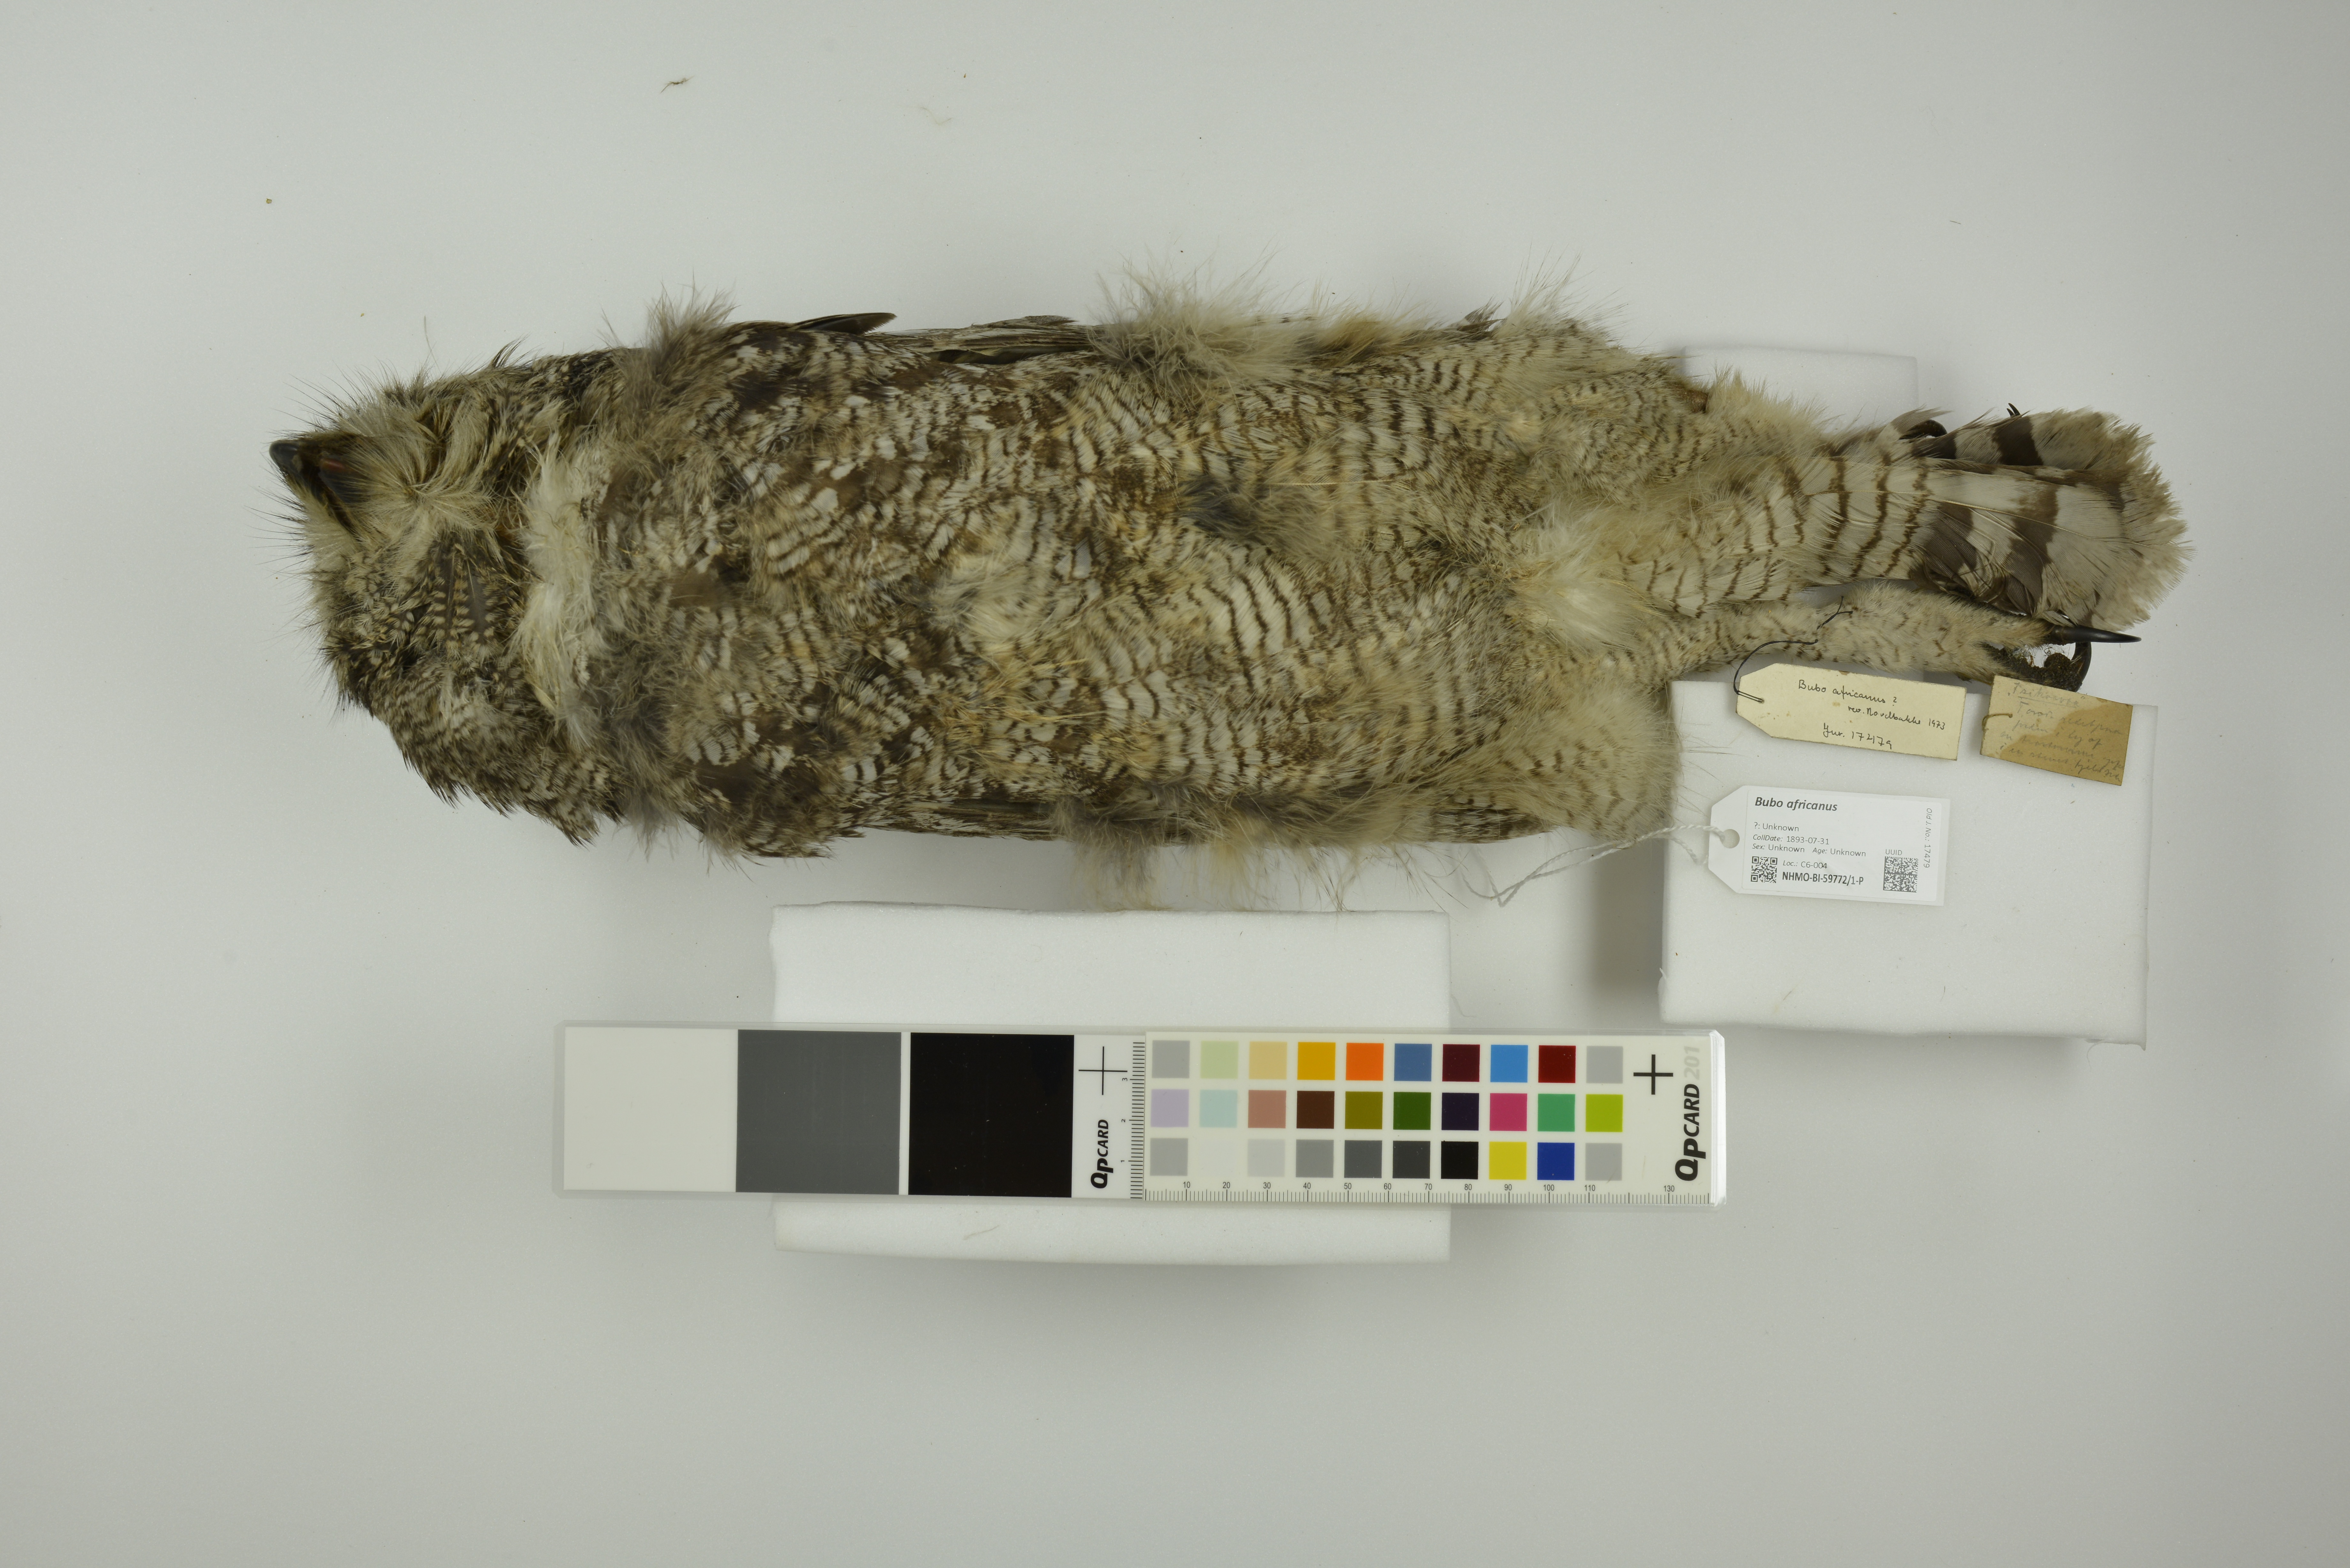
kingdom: Animalia
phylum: Chordata
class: Aves
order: Strigiformes
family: Strigidae
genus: Bubo
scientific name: Bubo africanus
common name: Spotted eagle-owl
